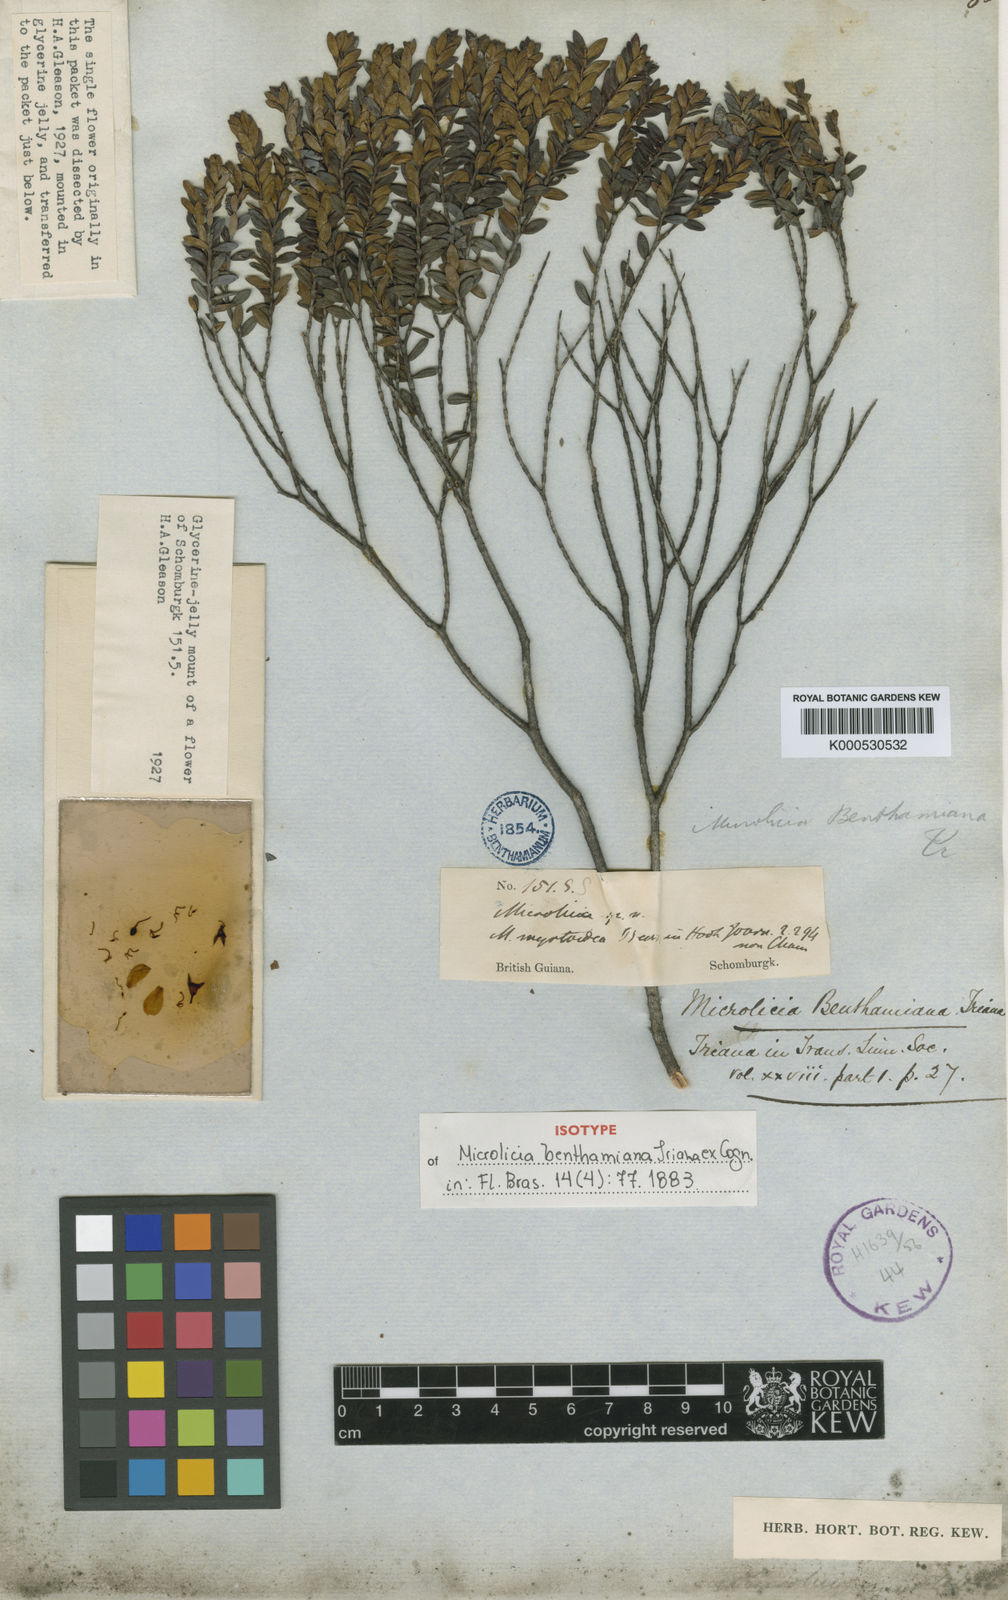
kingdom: Plantae
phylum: Tracheophyta
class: Magnoliopsida
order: Myrtales
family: Melastomataceae
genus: Microlicia
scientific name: Microlicia benthamiana
